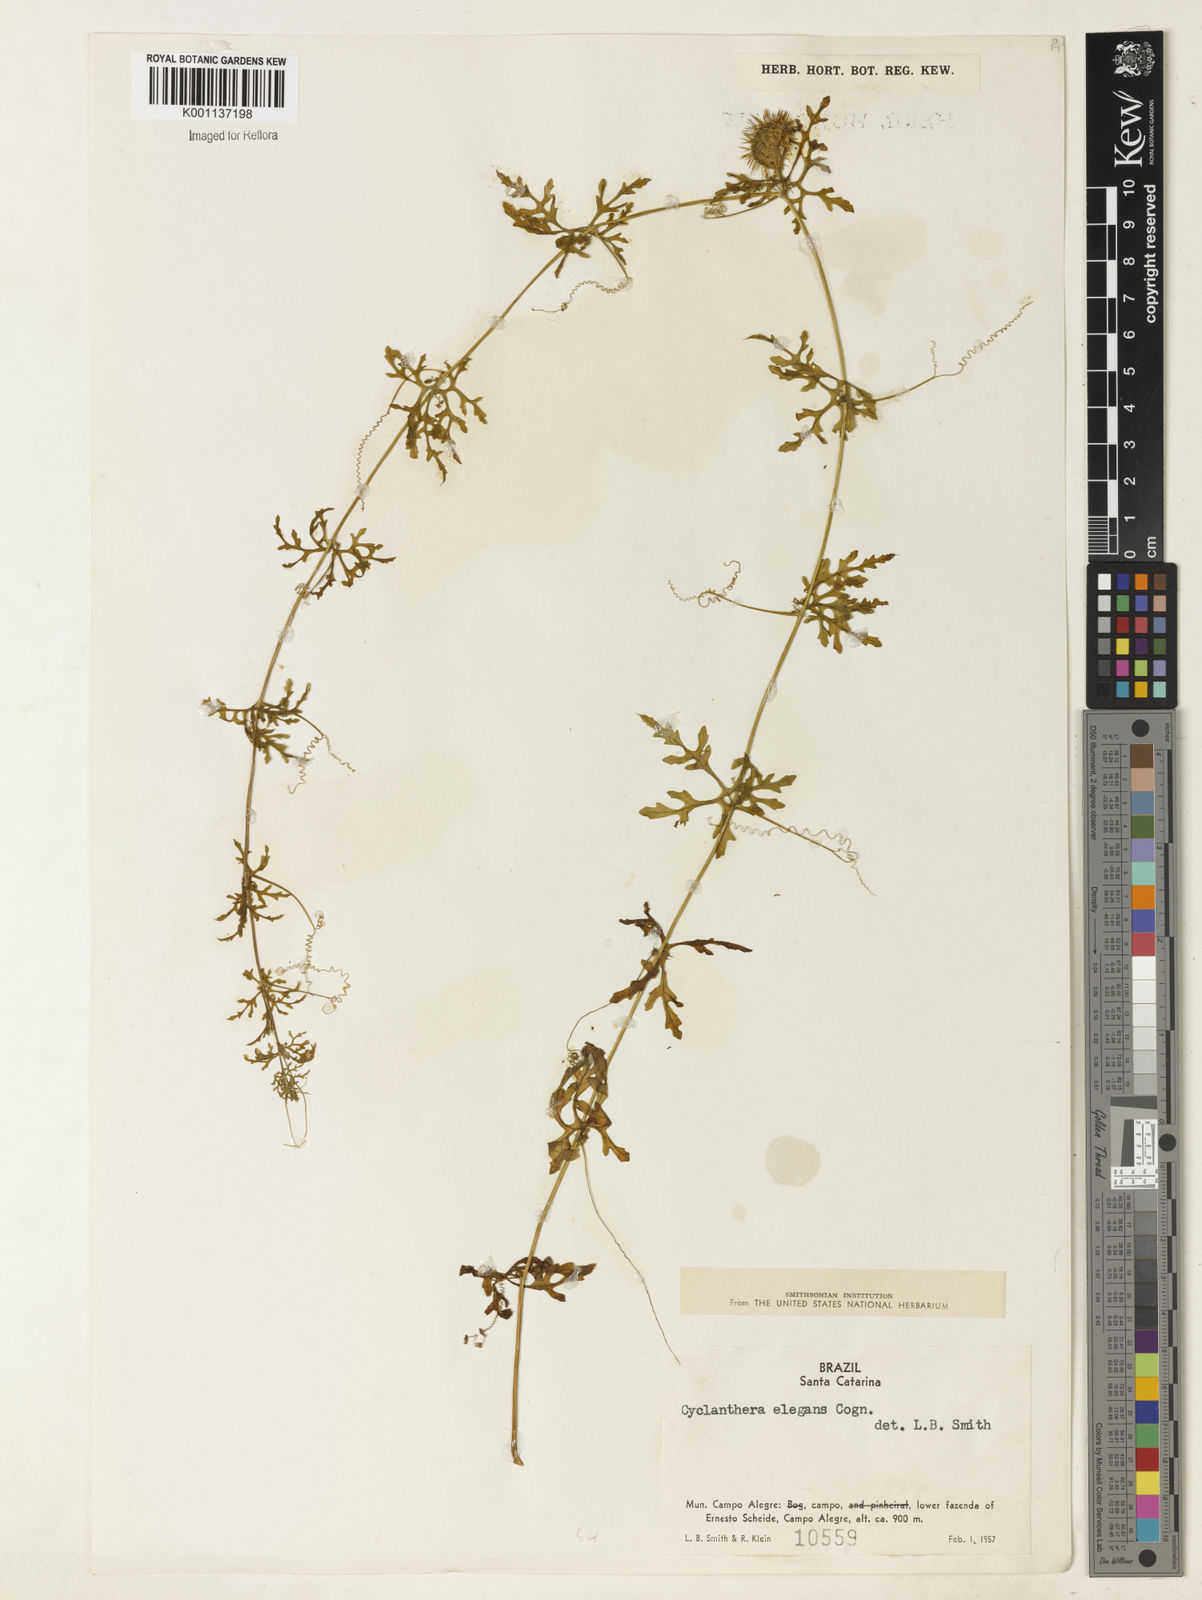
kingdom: Plantae
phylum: Tracheophyta
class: Magnoliopsida
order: Cucurbitales
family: Cucurbitaceae
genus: Cyclanthera
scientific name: Cyclanthera tenuifolia
